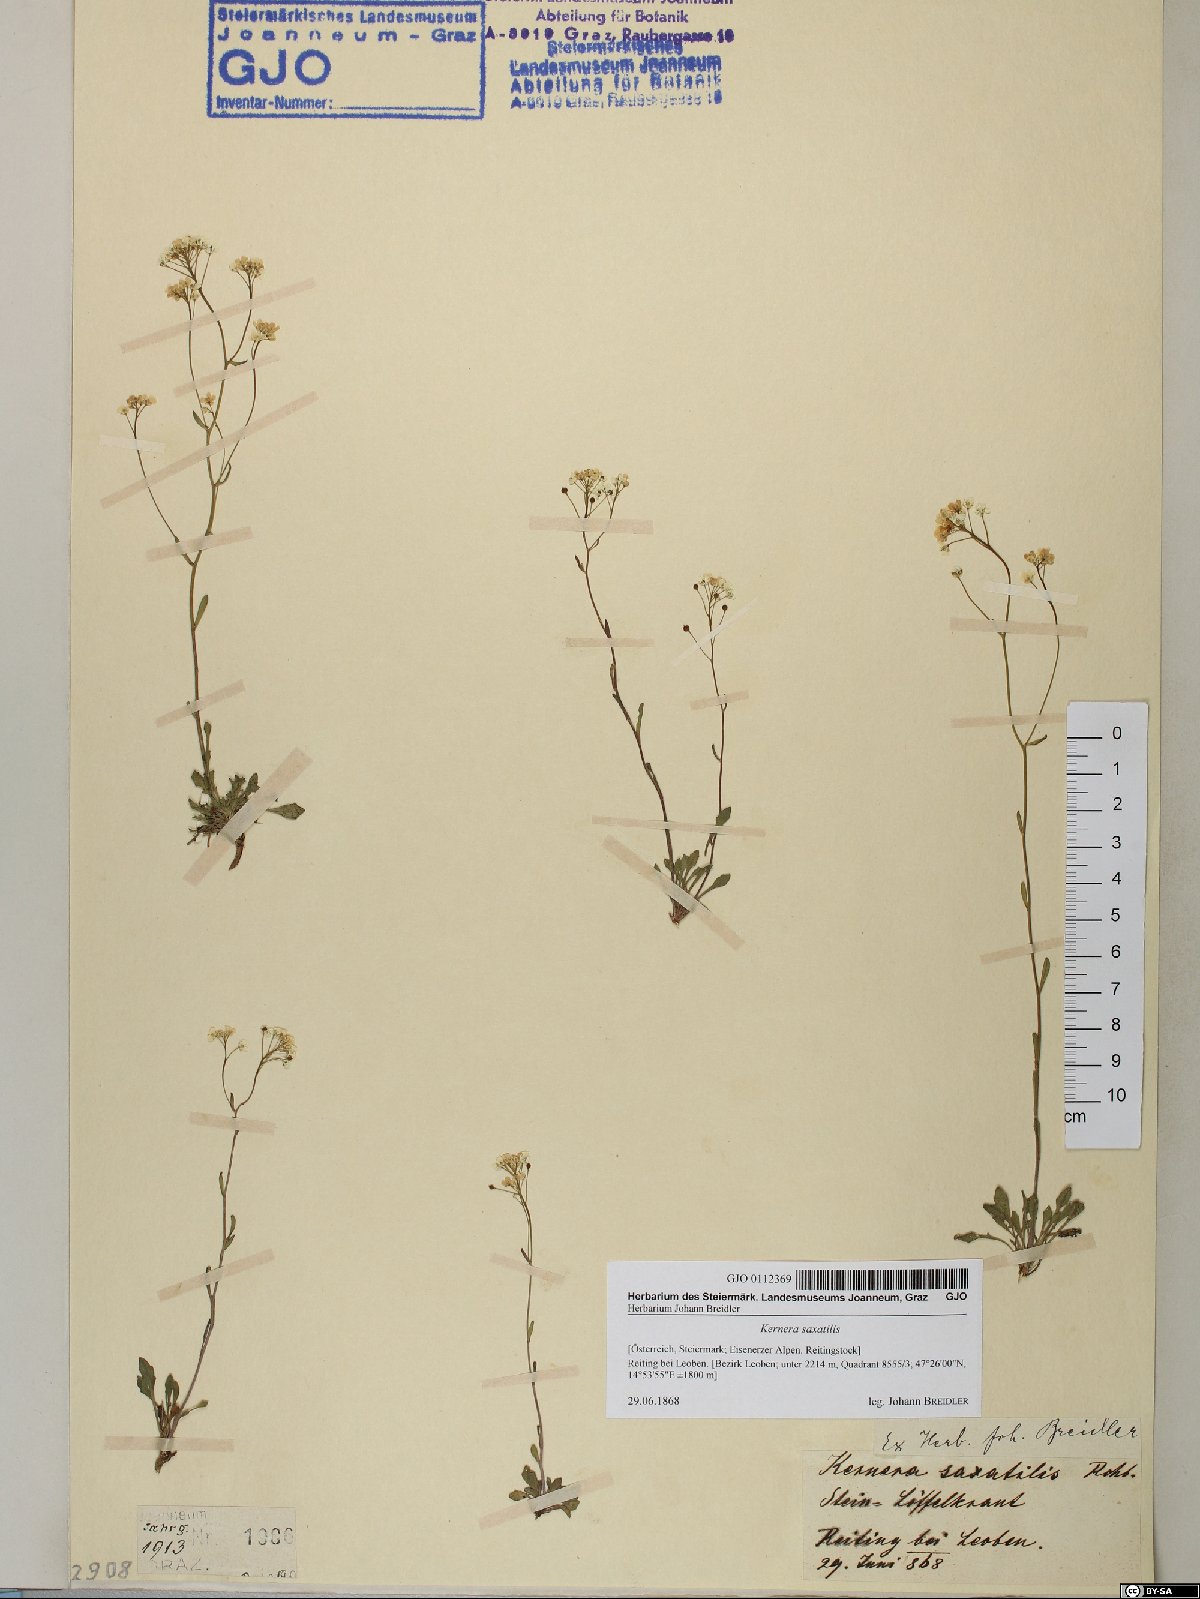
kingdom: Plantae
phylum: Tracheophyta
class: Magnoliopsida
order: Brassicales
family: Brassicaceae
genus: Kernera
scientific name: Kernera saxatilis
